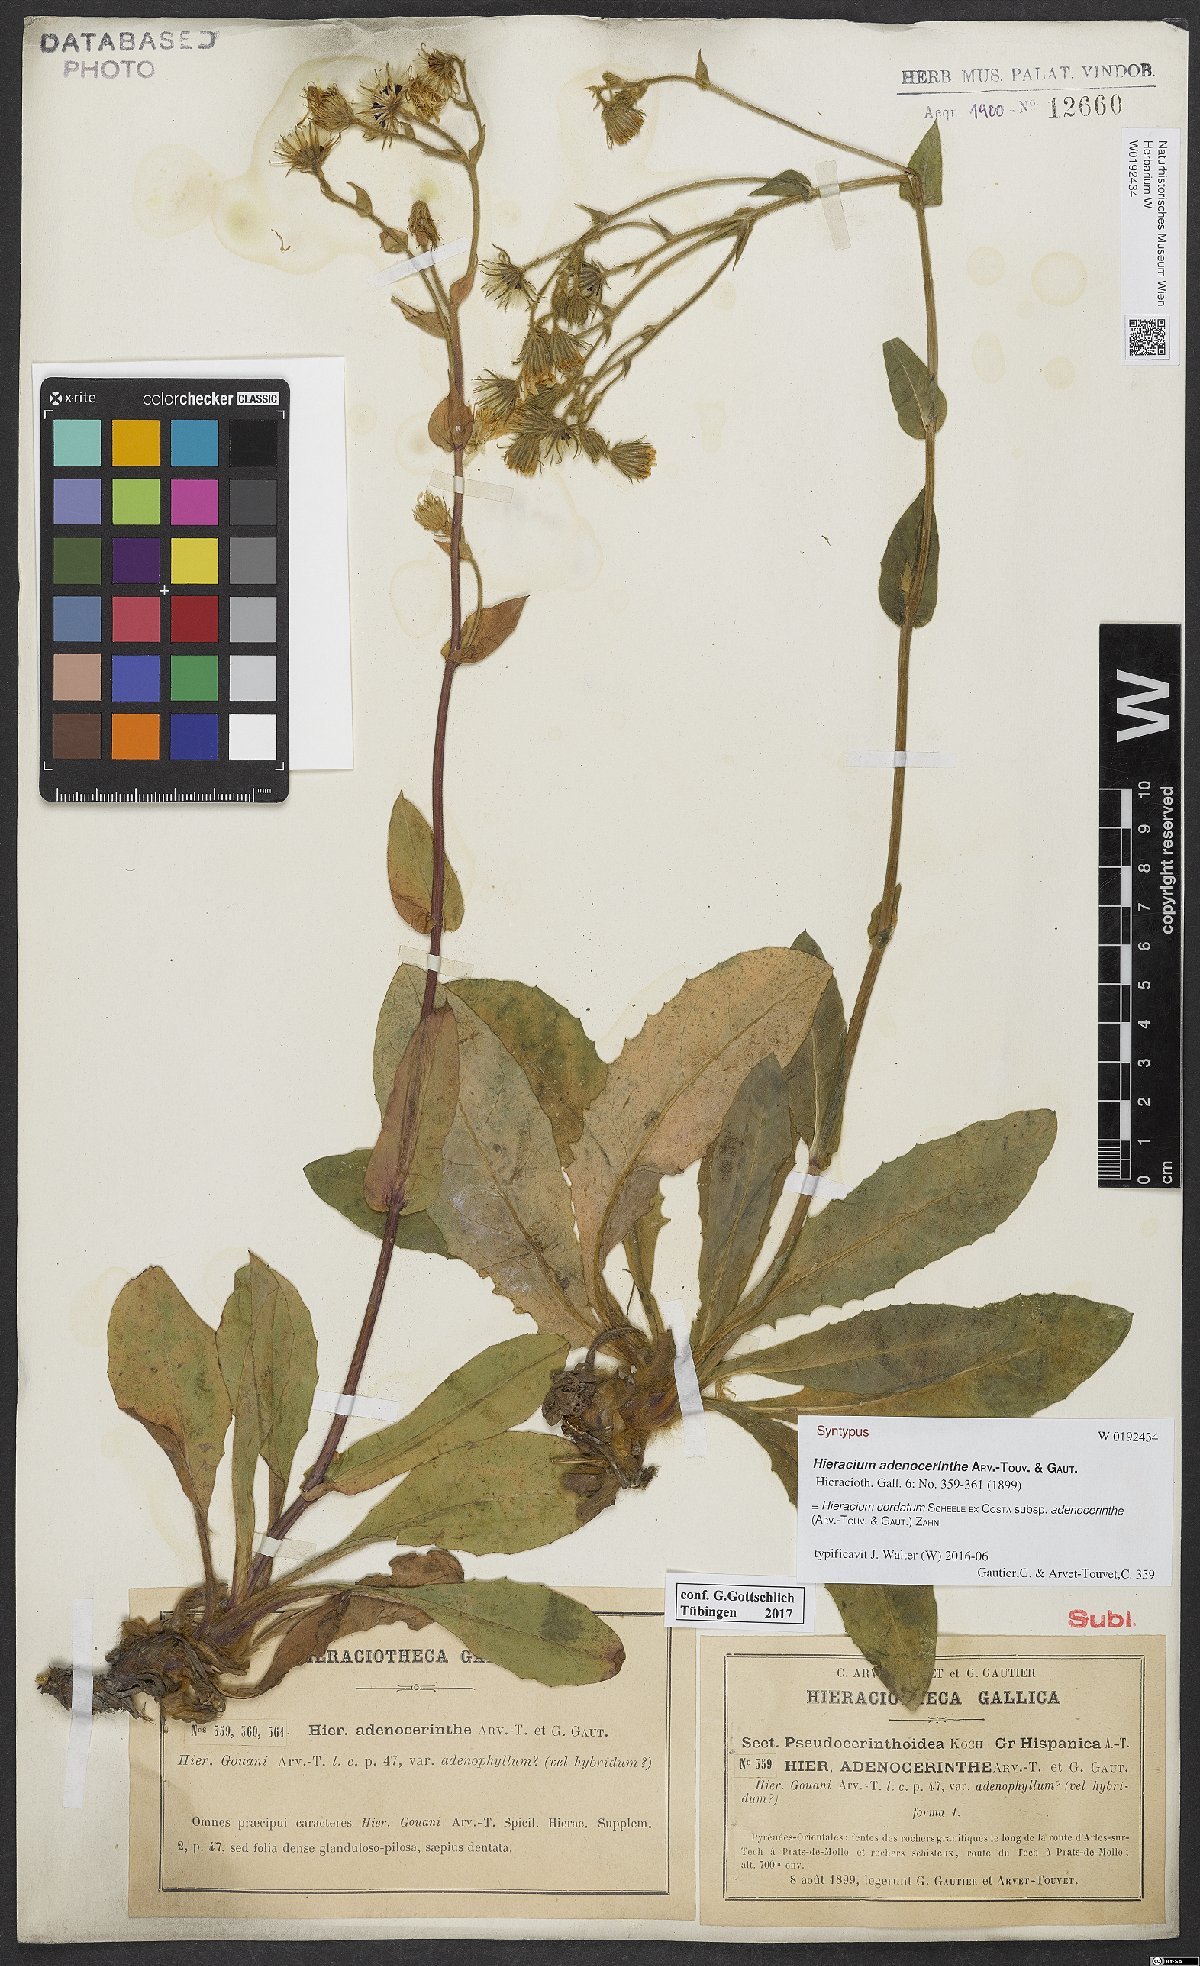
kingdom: Plantae
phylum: Tracheophyta
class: Magnoliopsida
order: Asterales
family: Asteraceae
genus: Hieracium
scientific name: Hieracium gouanii
